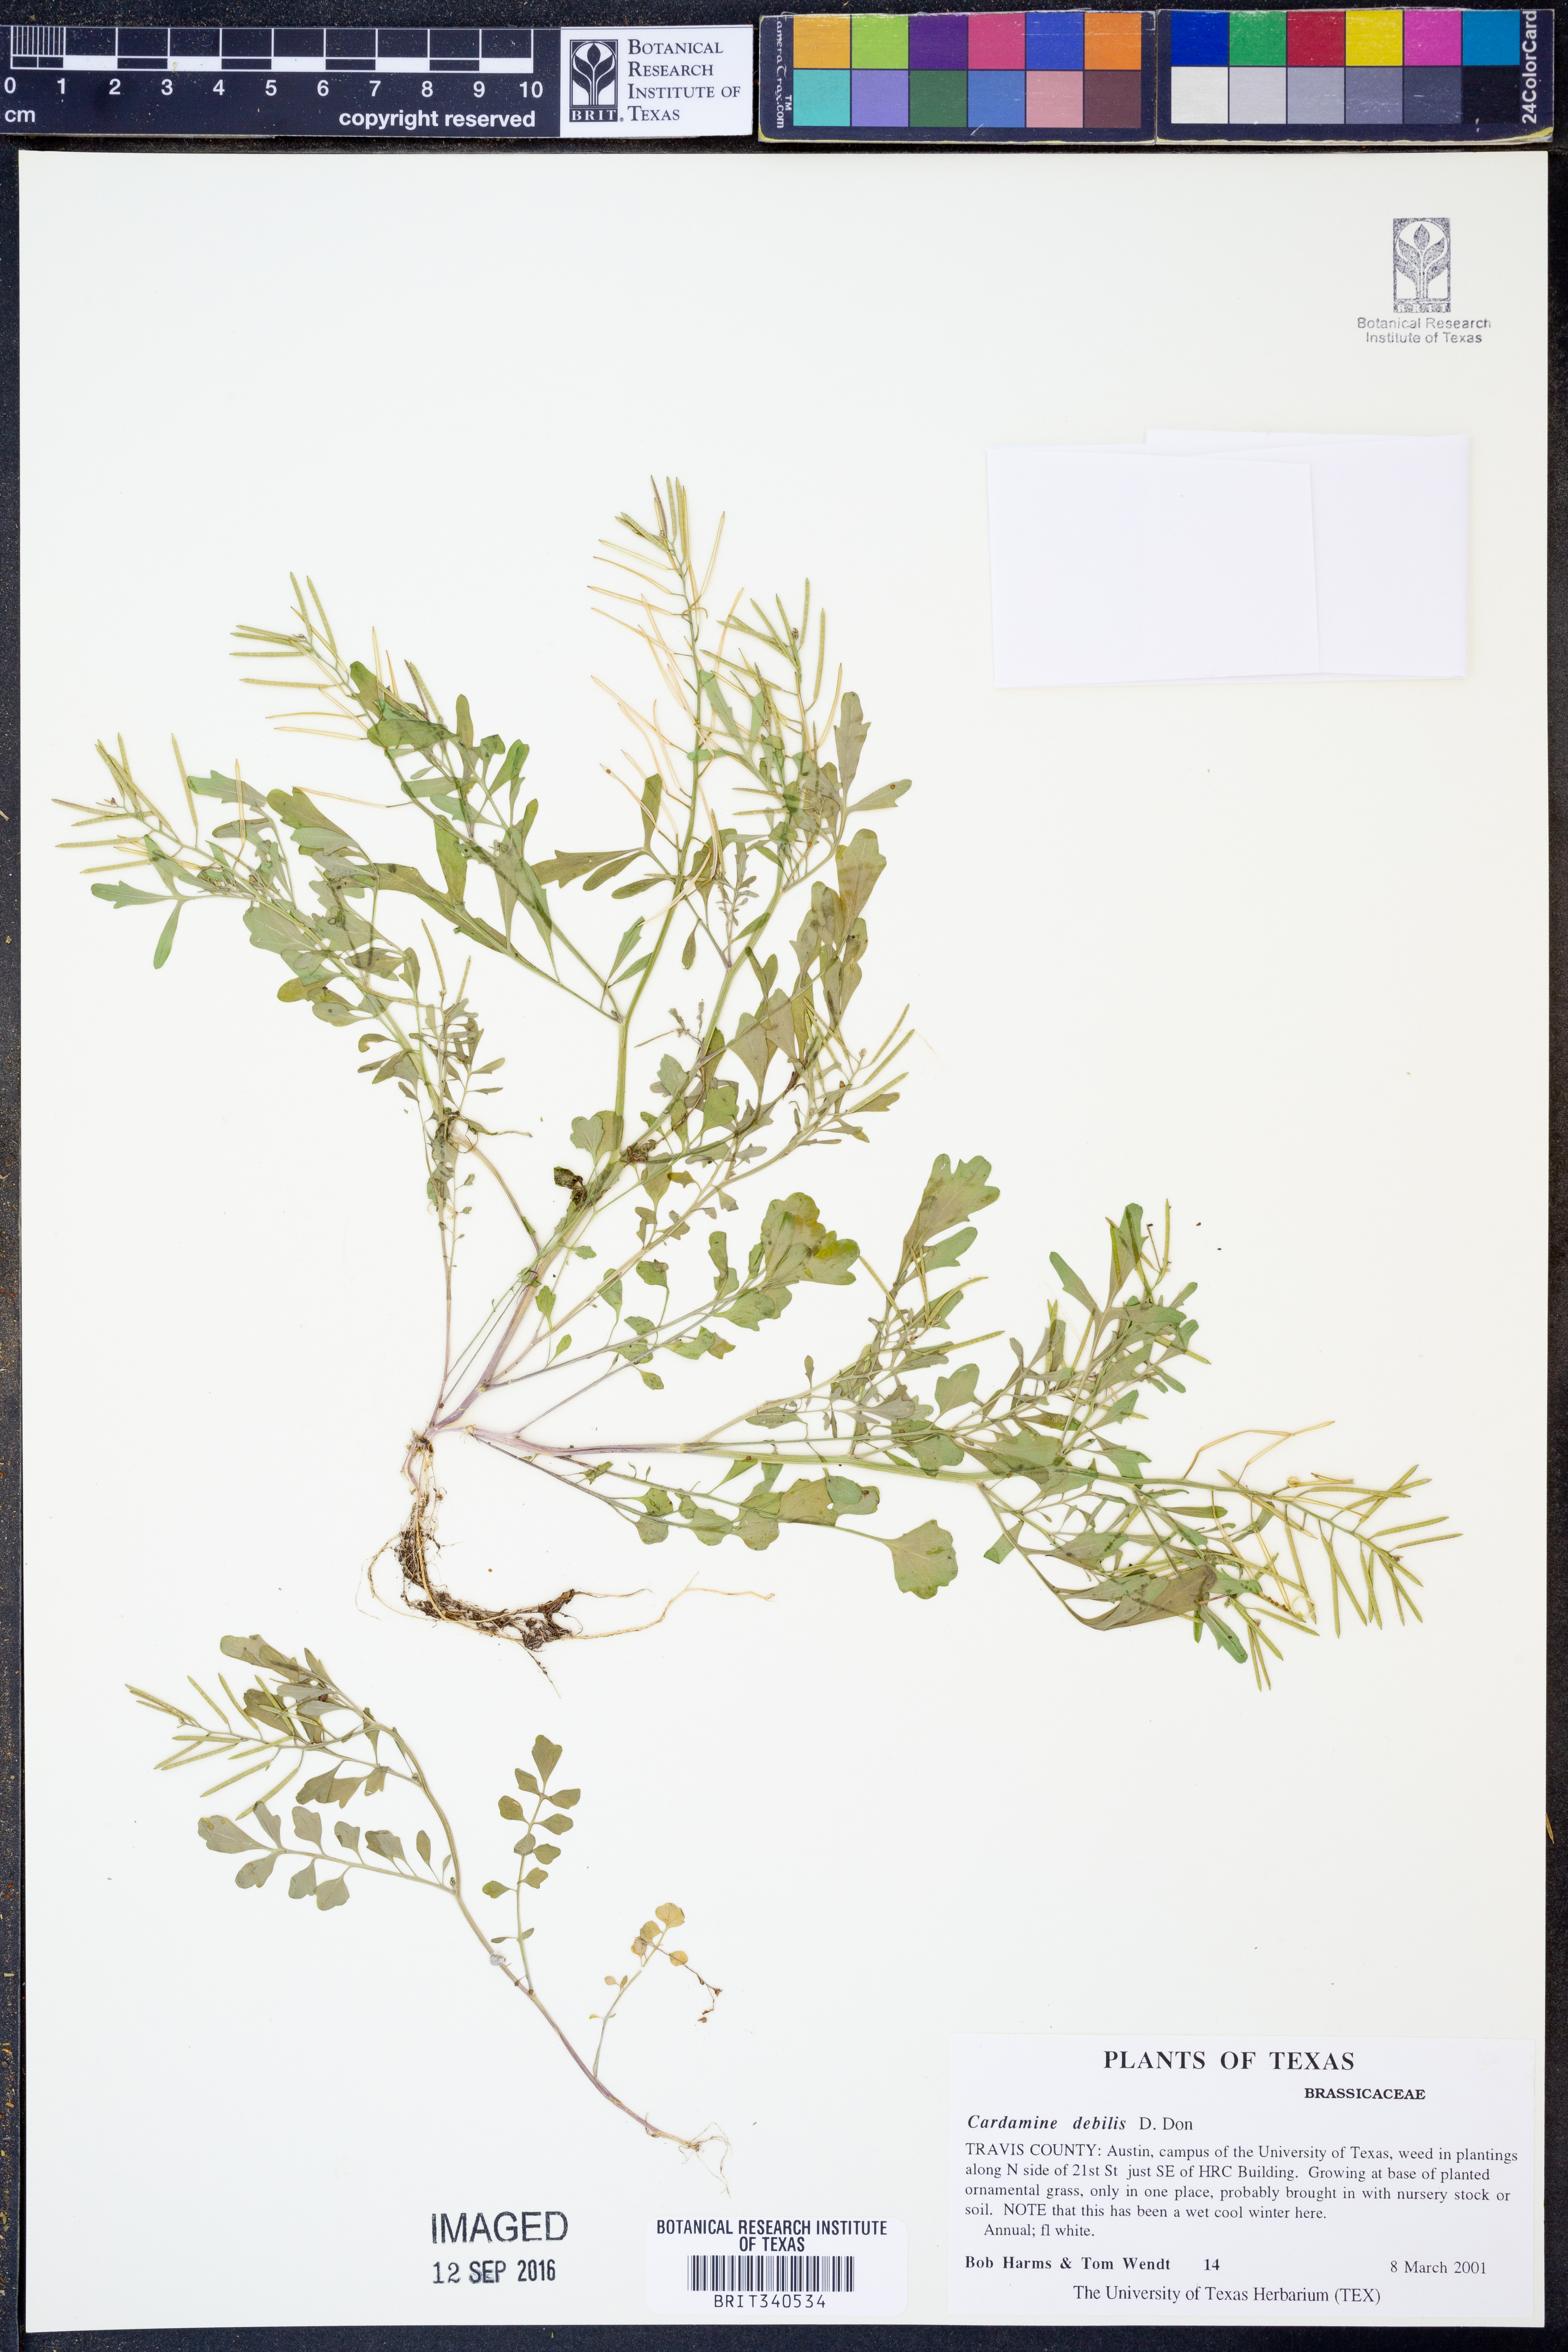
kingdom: Plantae
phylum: Tracheophyta
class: Magnoliopsida
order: Brassicales
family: Brassicaceae
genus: Cardamine
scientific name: Cardamine occulta
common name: Asian wavy bittercress
